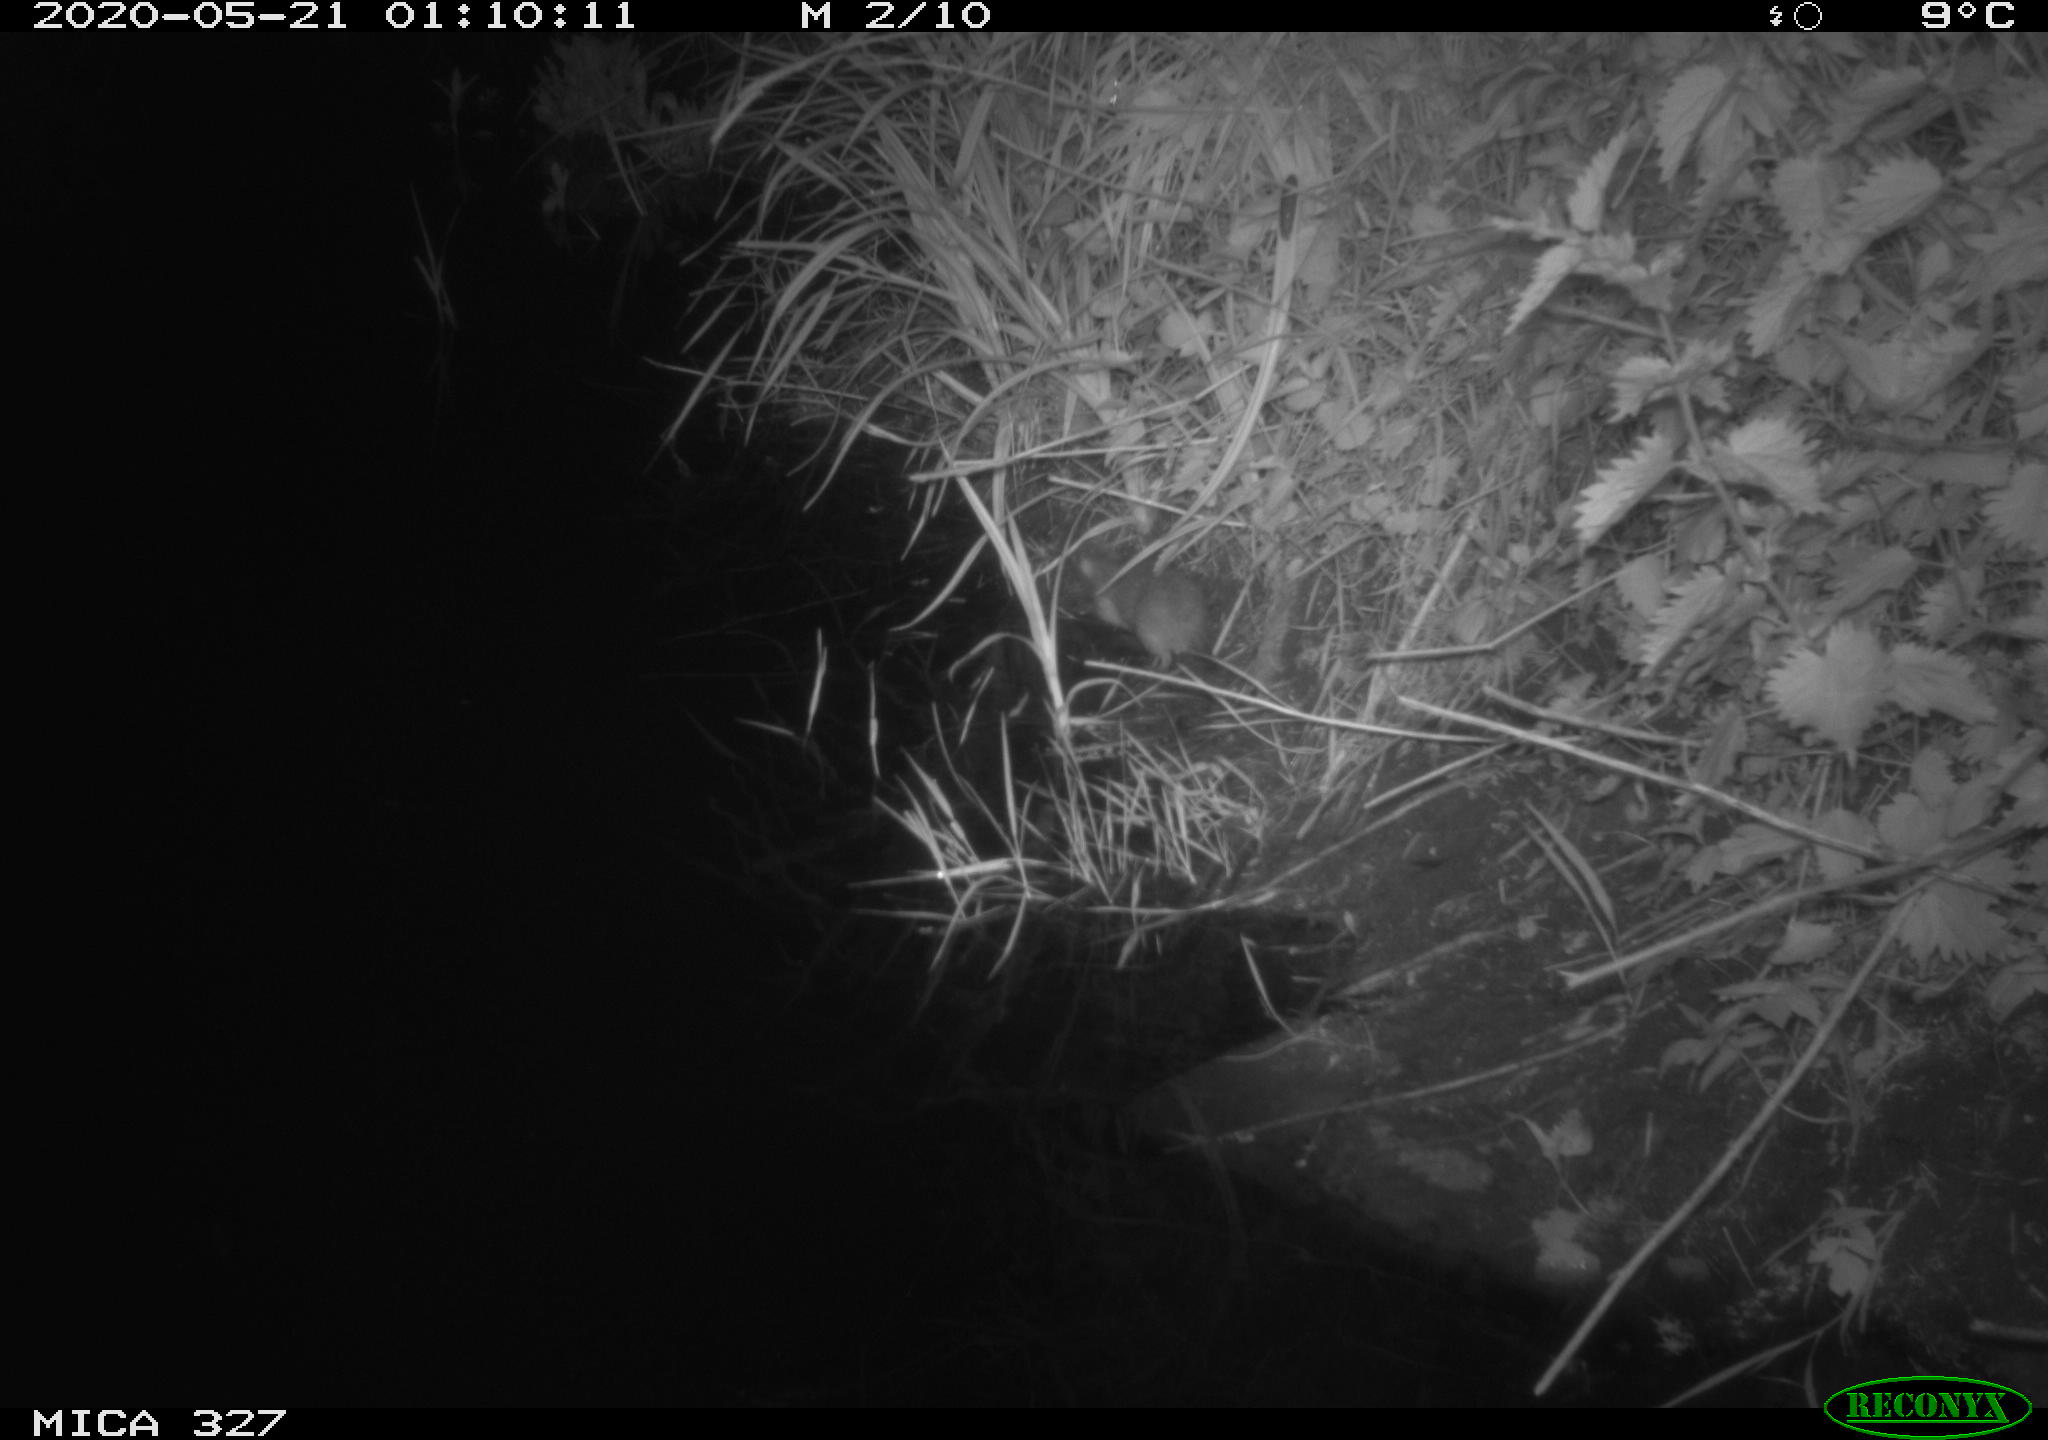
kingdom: Animalia
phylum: Chordata
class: Mammalia
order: Rodentia
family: Muridae
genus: Rattus
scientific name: Rattus norvegicus
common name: Brown rat
